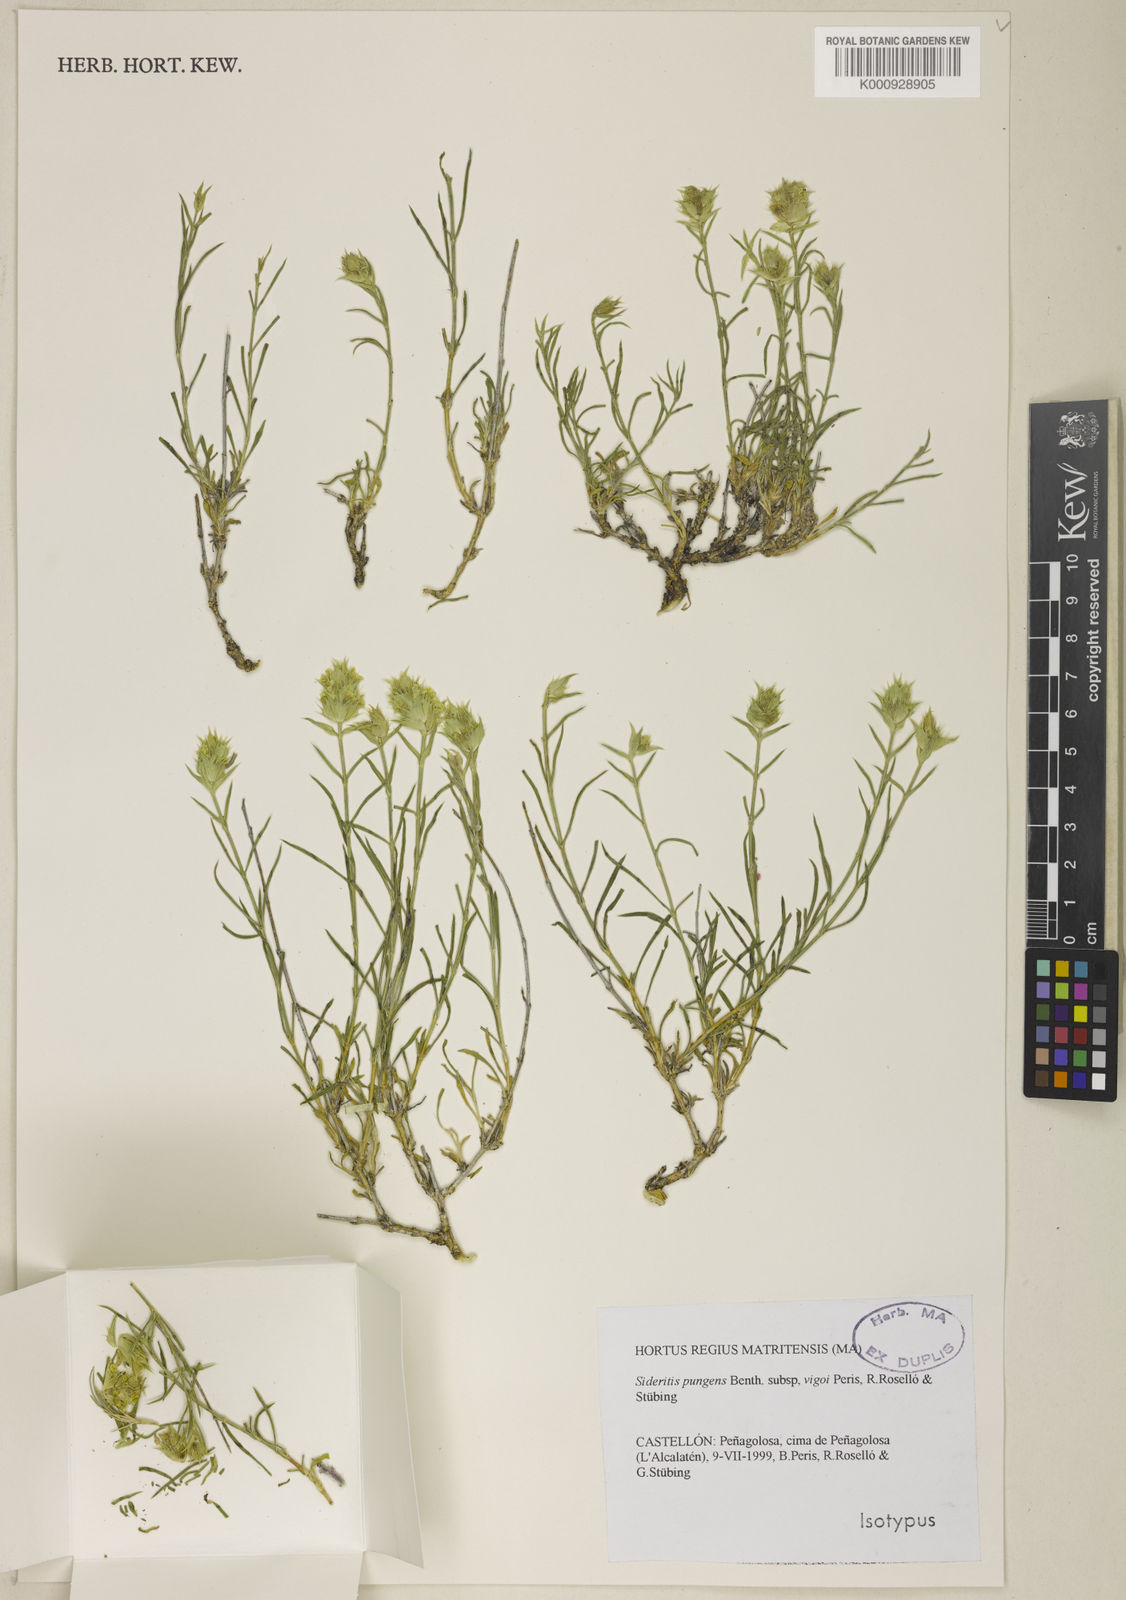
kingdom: Plantae
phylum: Tracheophyta
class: Magnoliopsida
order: Lamiales
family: Lamiaceae
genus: Sideritis
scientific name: Sideritis tragoriganum
